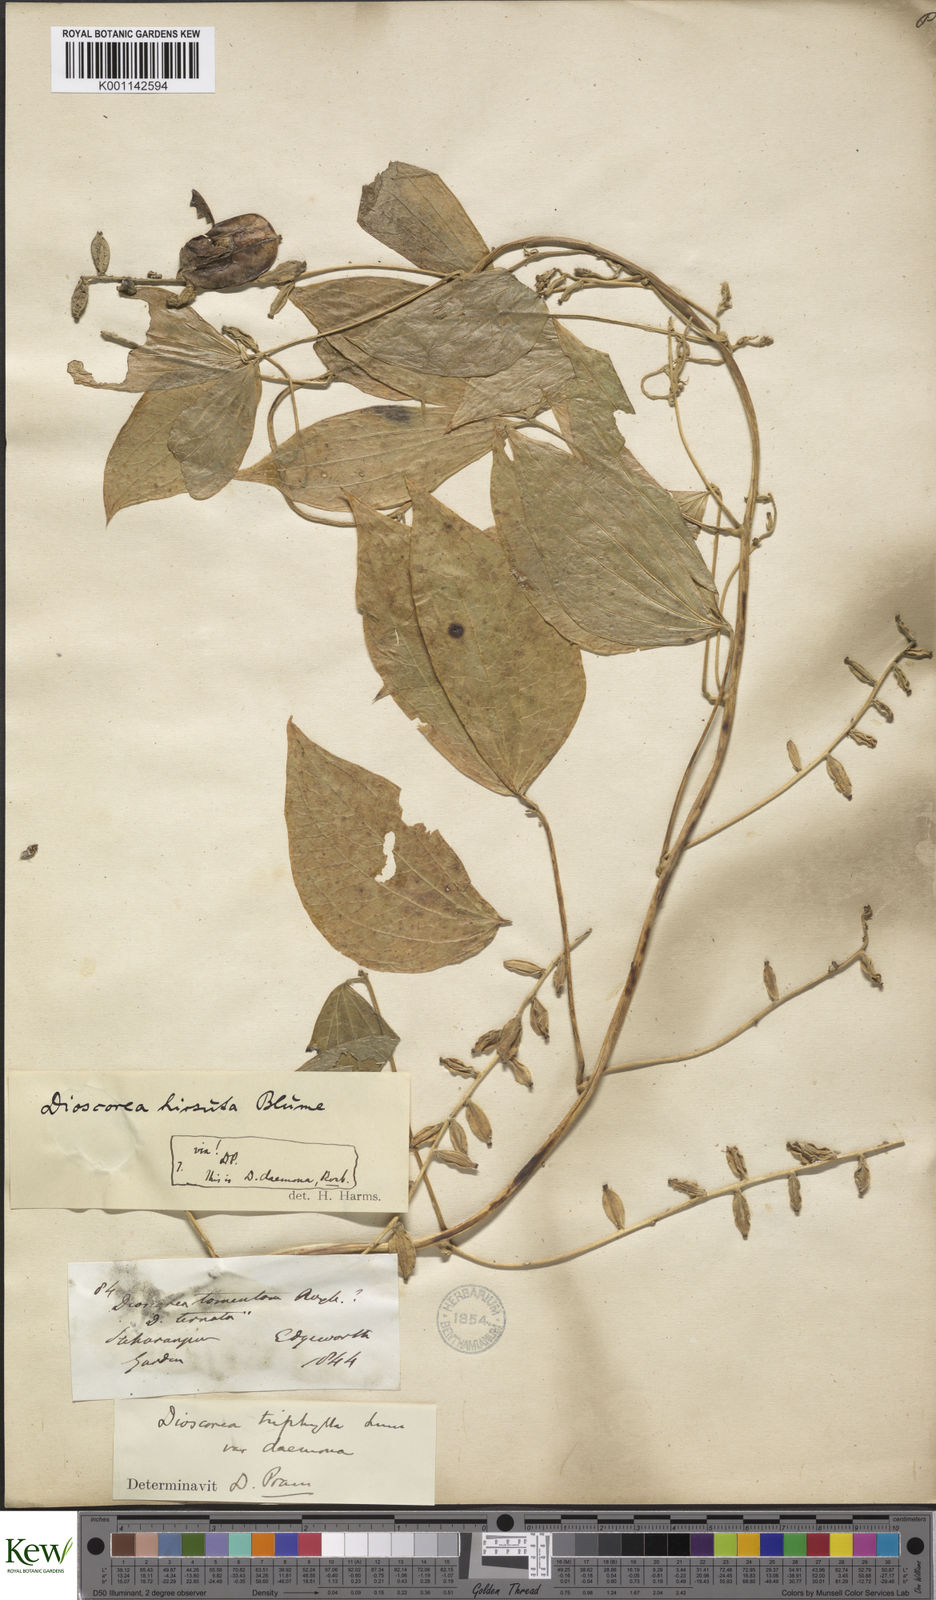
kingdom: Plantae
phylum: Tracheophyta
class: Liliopsida
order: Dioscoreales
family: Dioscoreaceae
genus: Dioscorea
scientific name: Dioscorea pentaphylla
